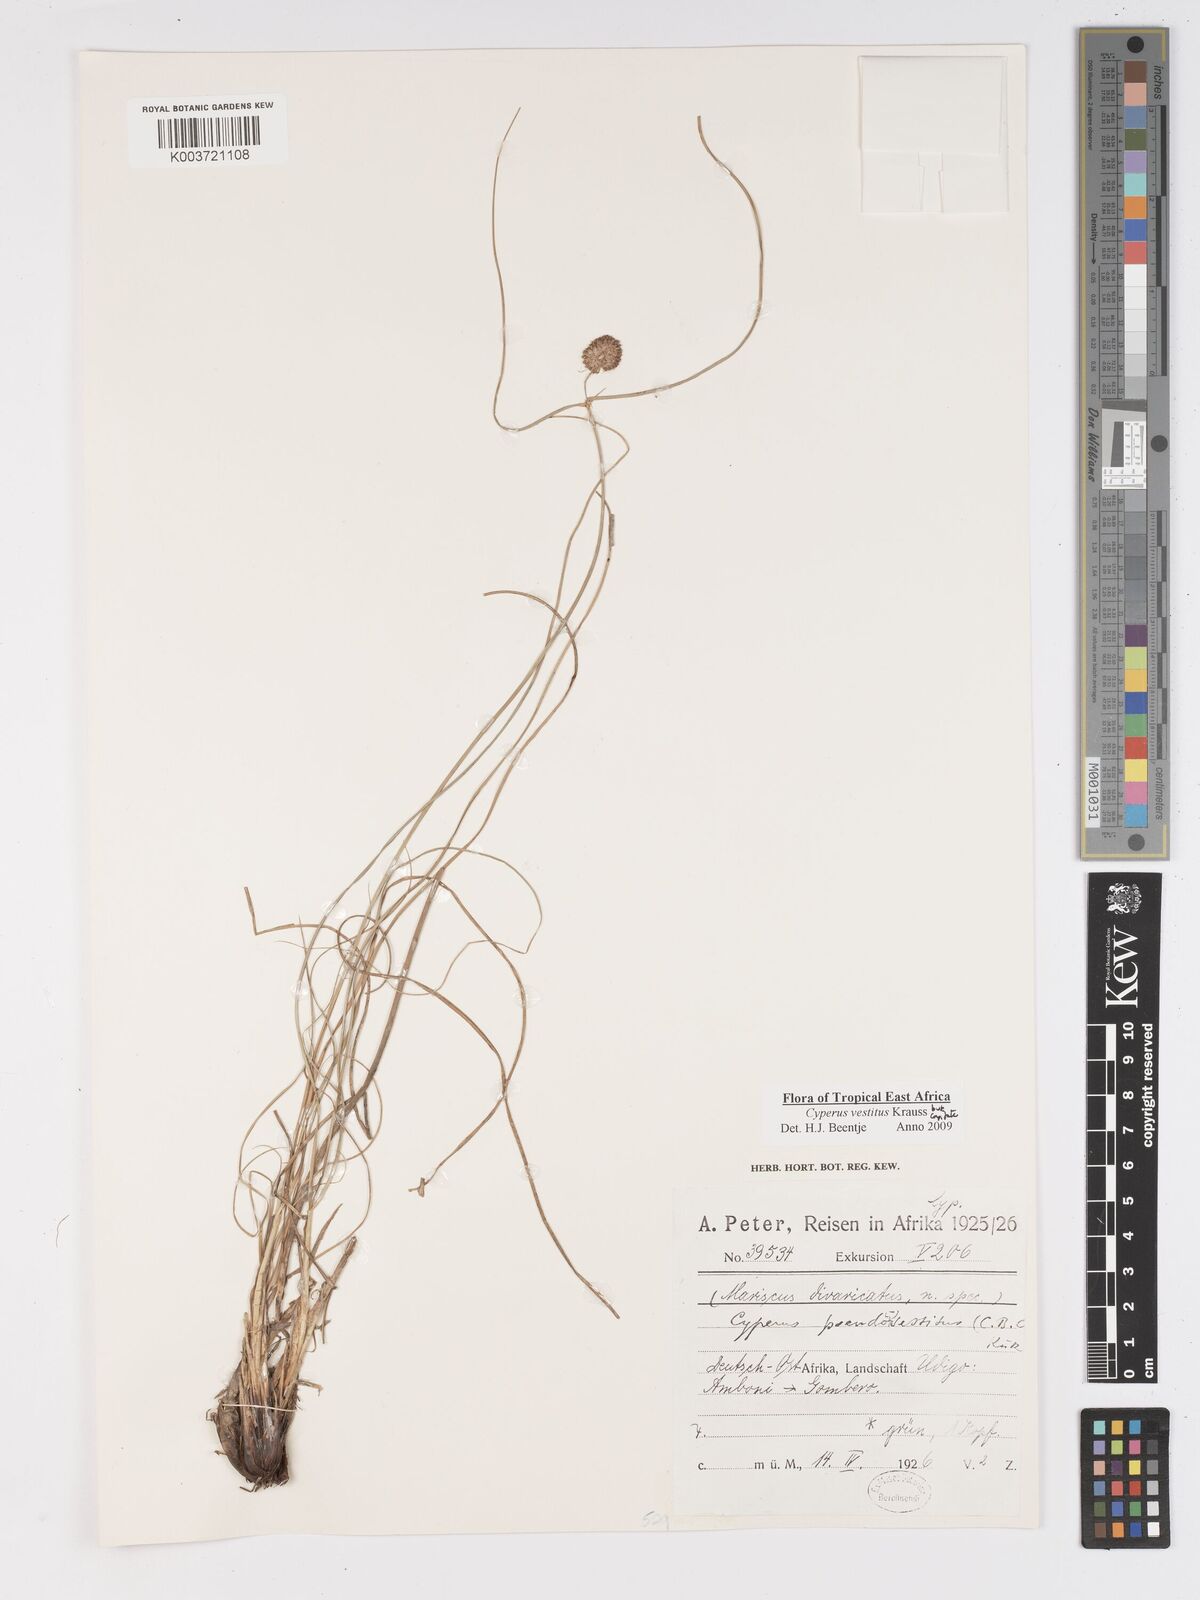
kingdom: Plantae
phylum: Tracheophyta
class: Liliopsida
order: Poales
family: Cyperaceae
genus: Cyperus
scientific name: Cyperus vestitus
